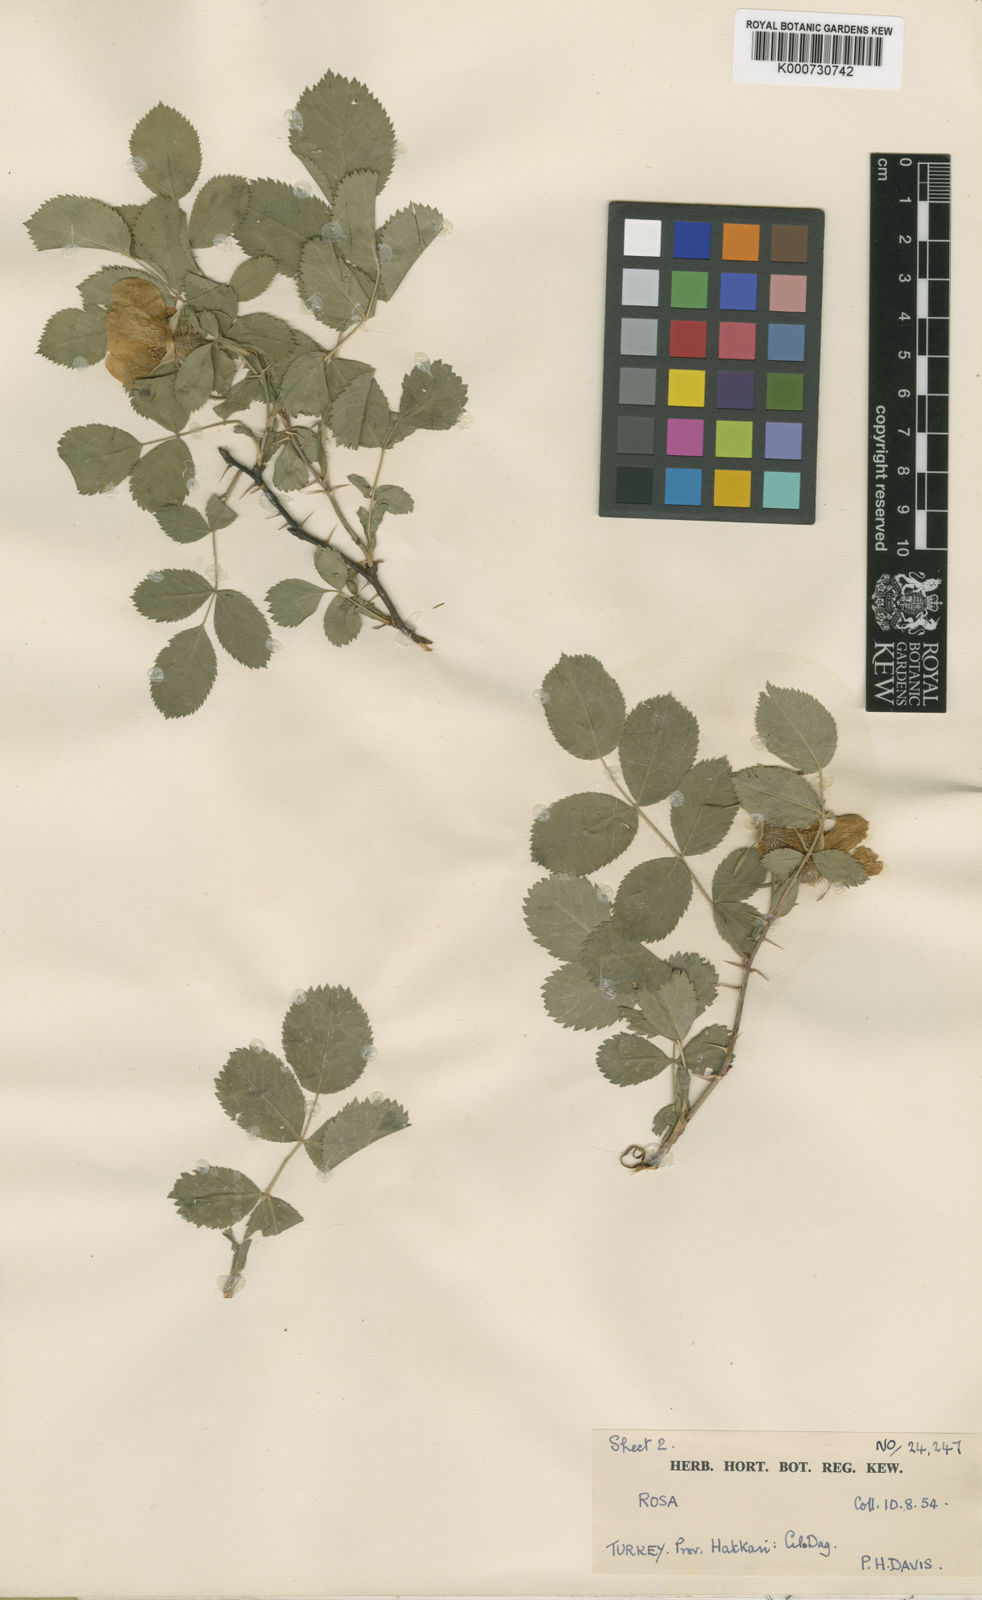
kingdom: Plantae
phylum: Tracheophyta
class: Magnoliopsida
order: Rosales
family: Rosaceae
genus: Rosa
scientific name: Rosa heckeliana
